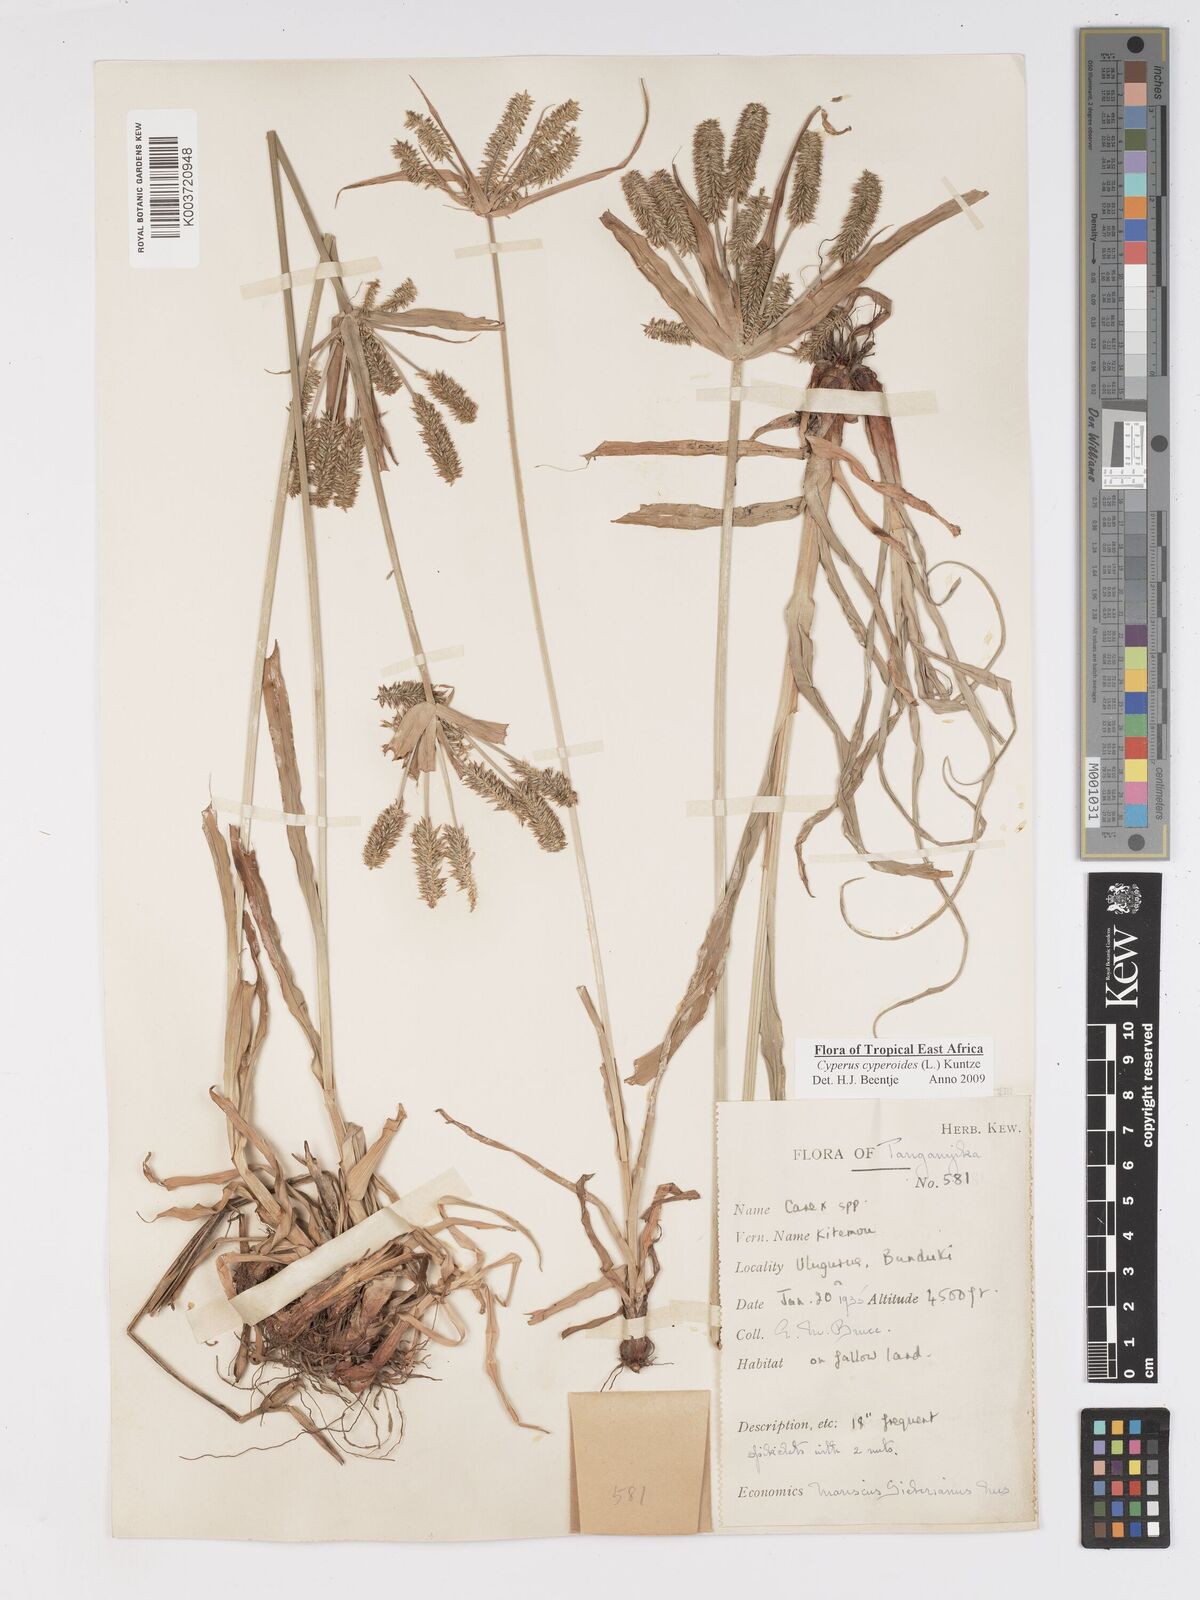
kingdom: Plantae
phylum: Tracheophyta
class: Liliopsida
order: Poales
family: Cyperaceae
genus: Cyperus
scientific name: Cyperus cyperoides
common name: Pacific island flat sedge
